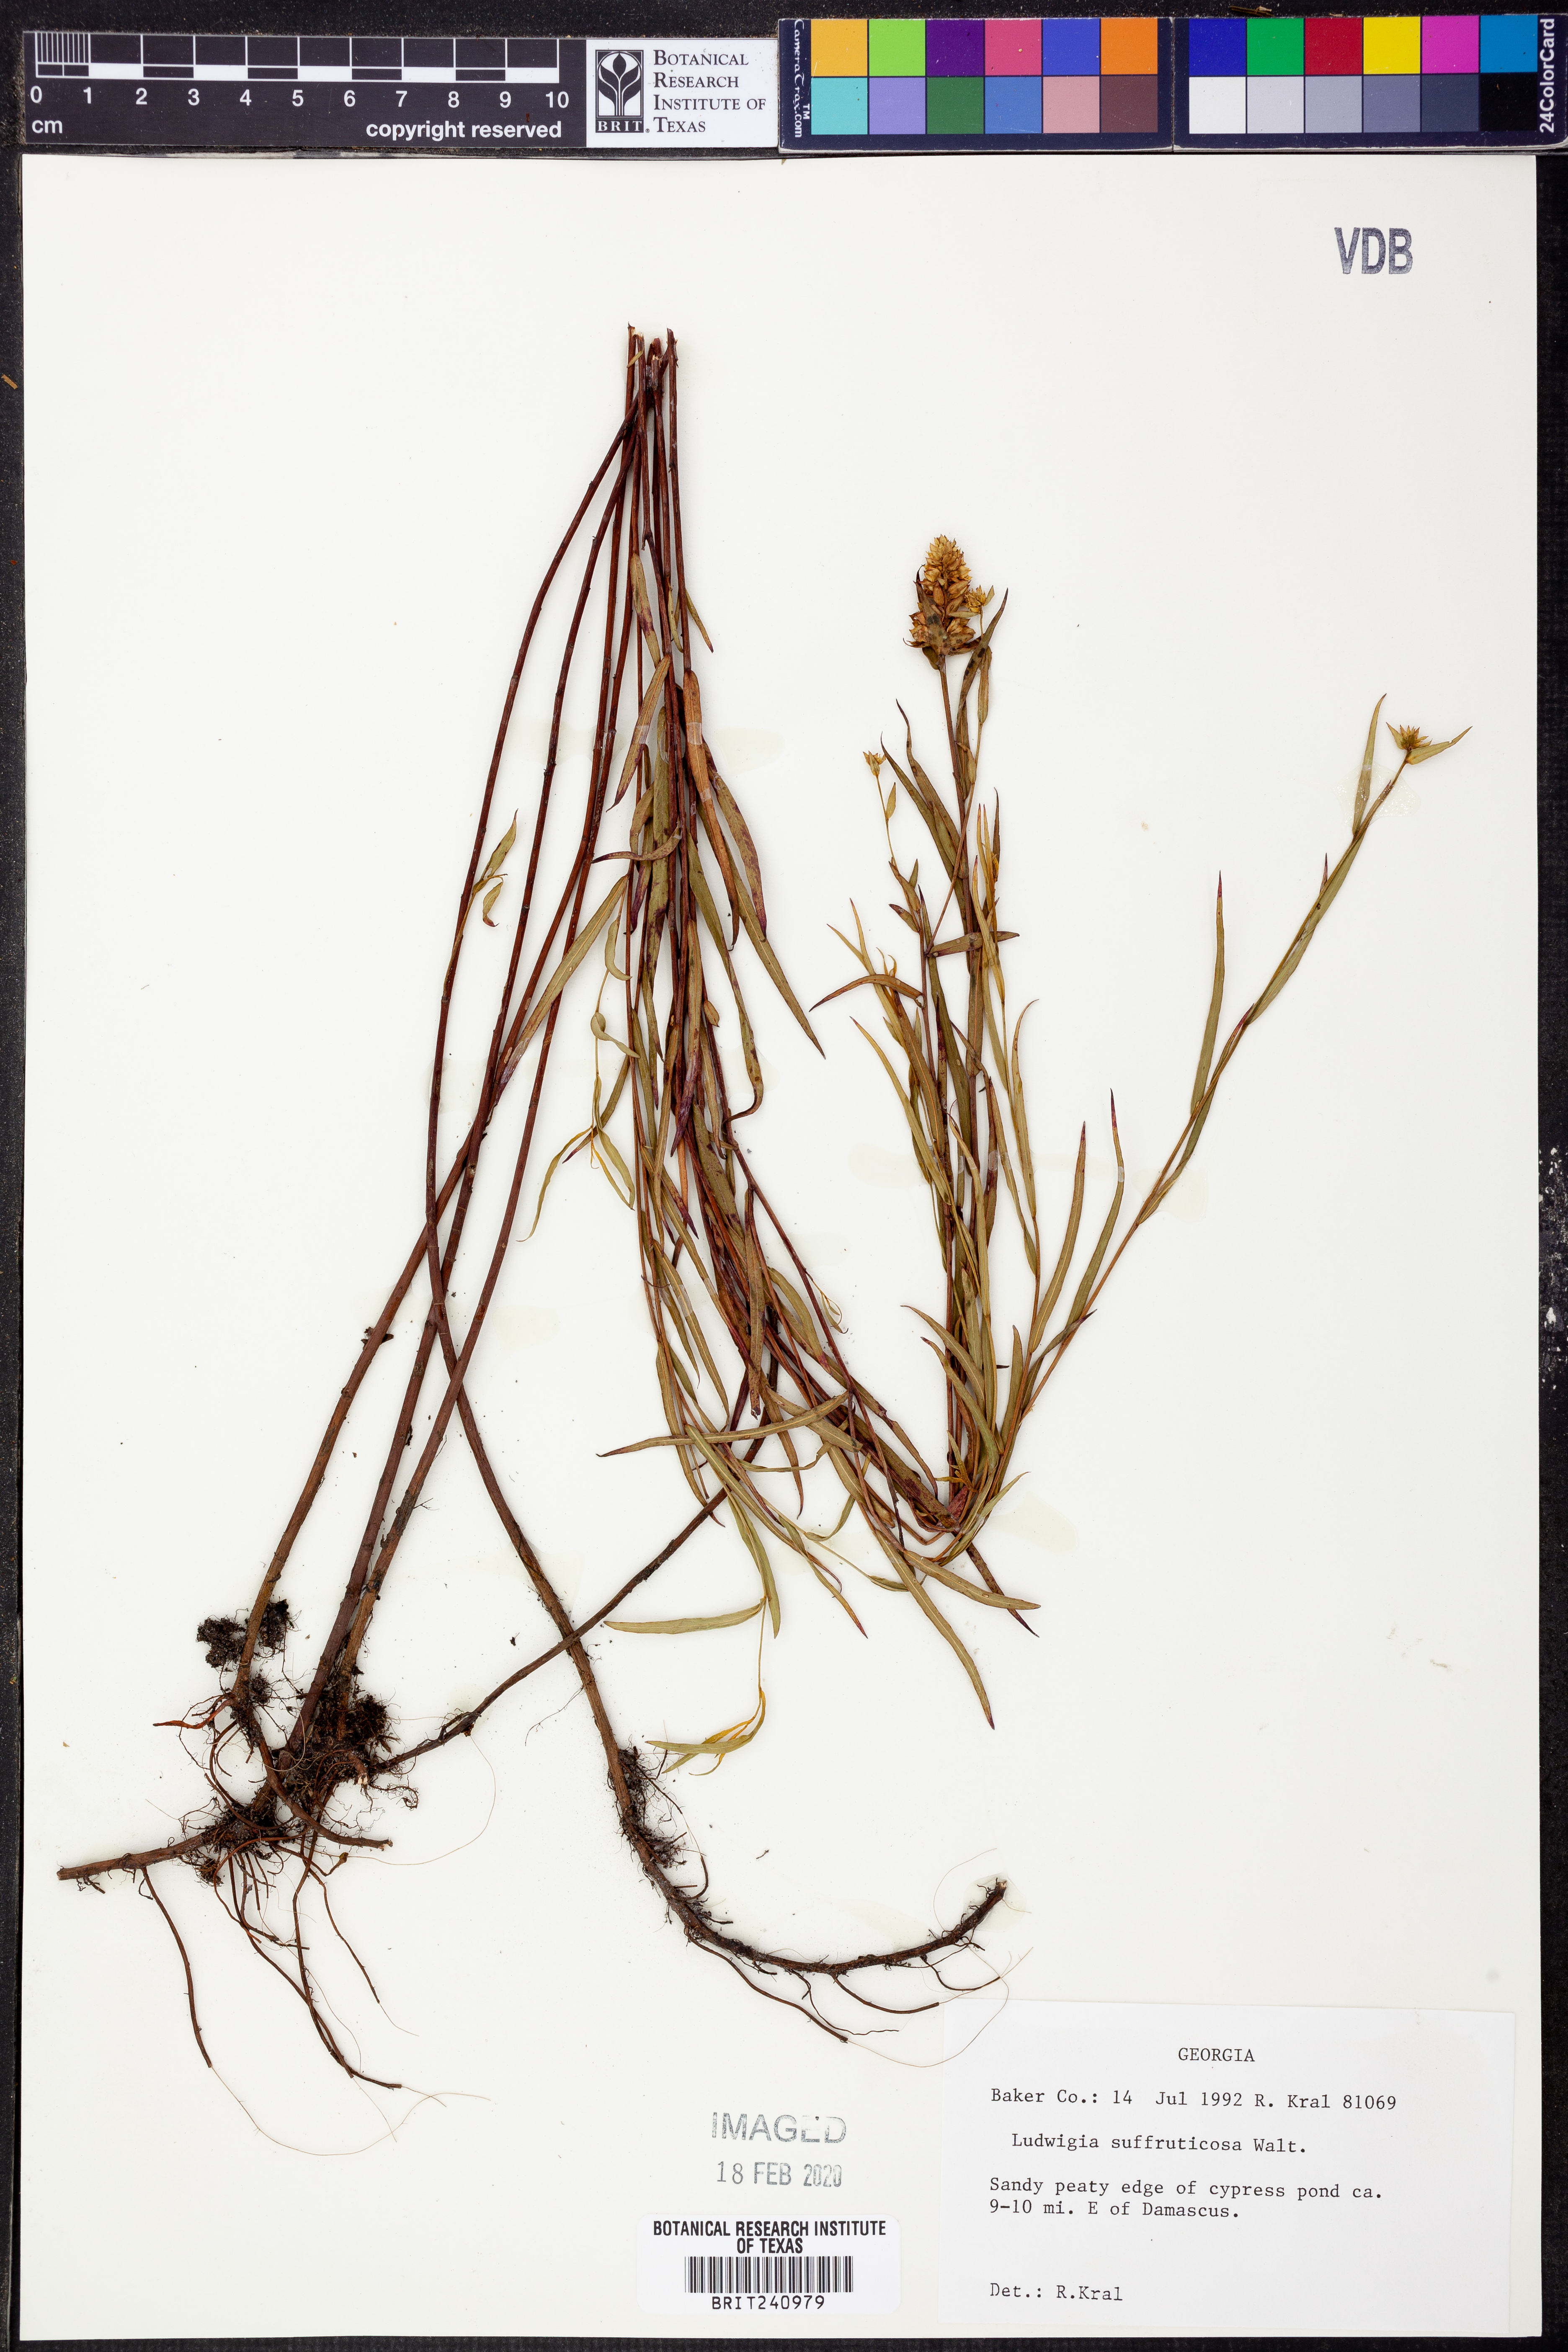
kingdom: Plantae
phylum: Tracheophyta
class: Magnoliopsida
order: Myrtales
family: Onagraceae
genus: Ludwigia
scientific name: Ludwigia suffruticosa
